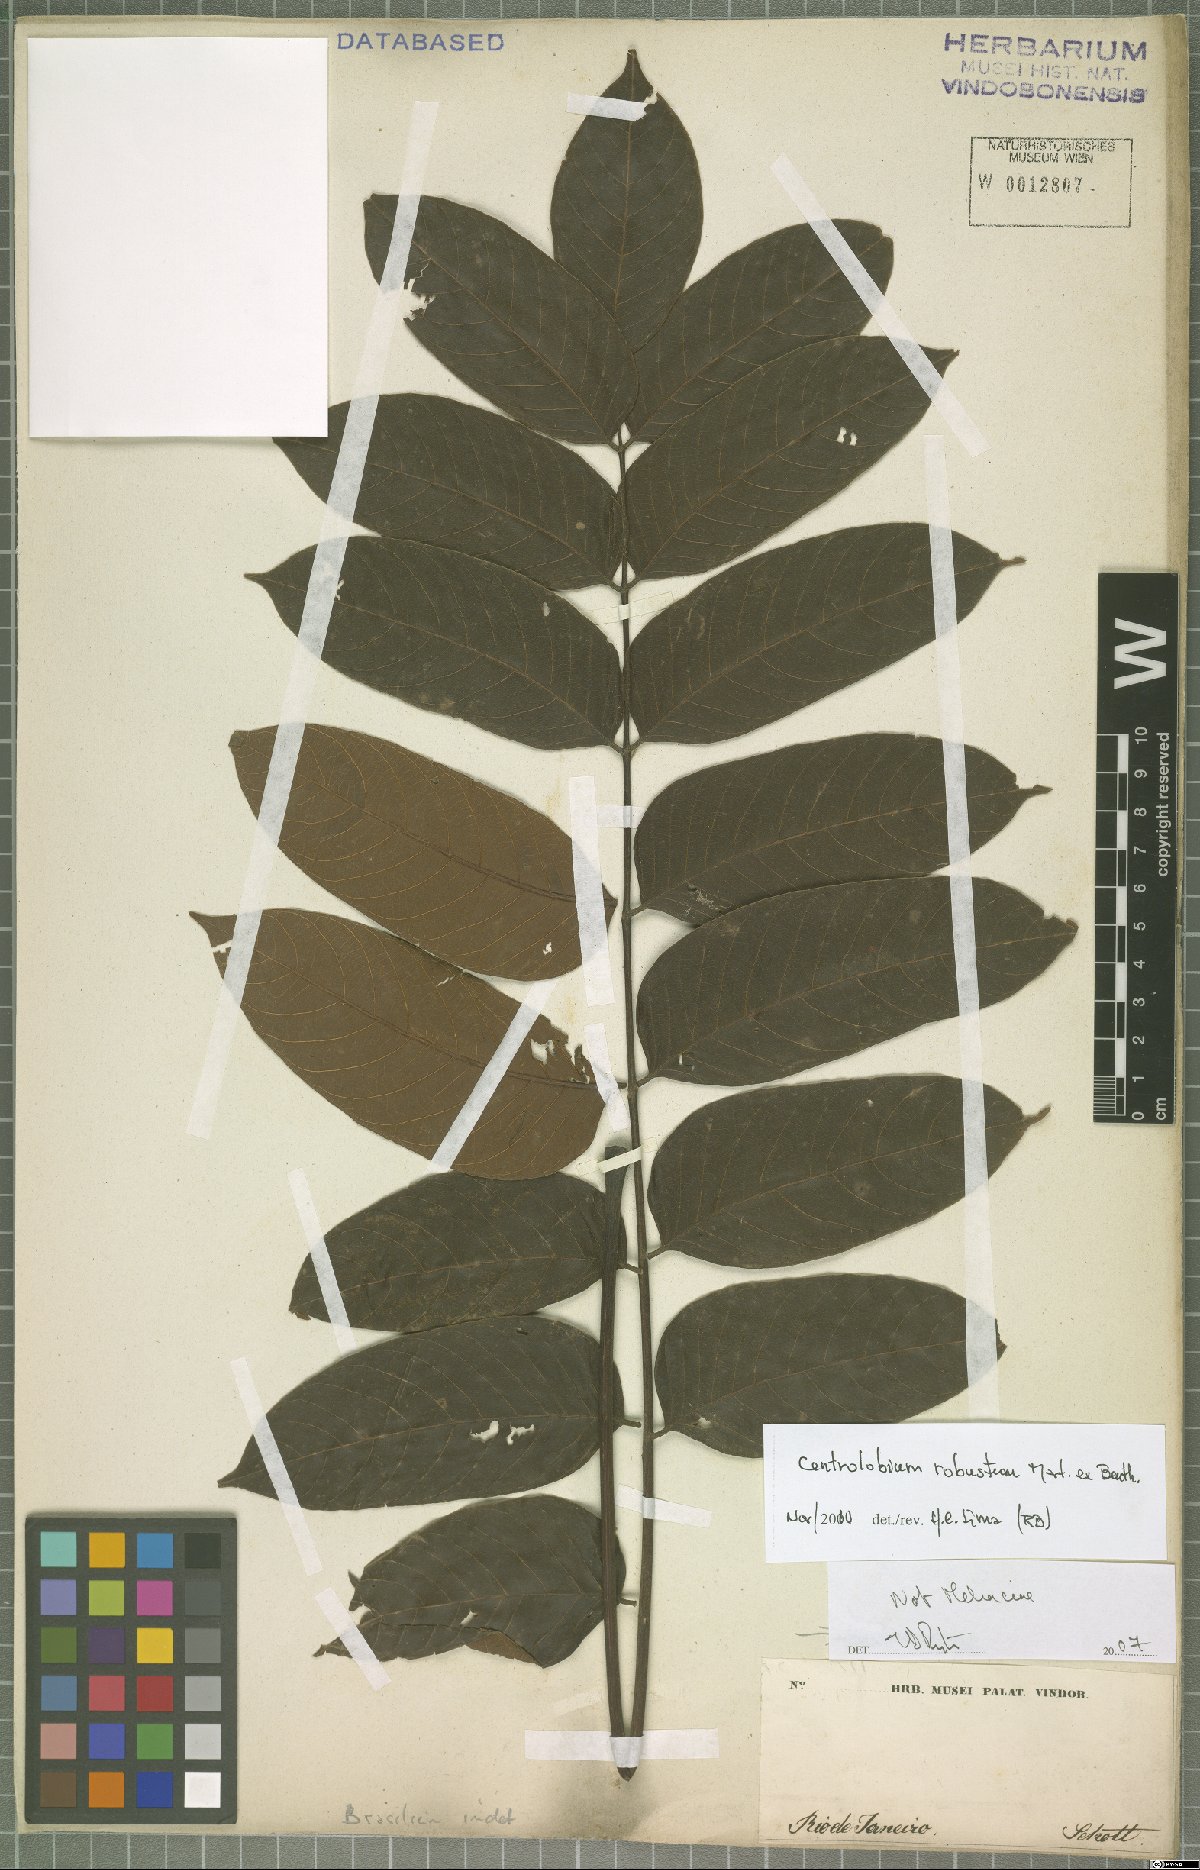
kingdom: Plantae
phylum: Tracheophyta
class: Magnoliopsida
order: Fabales
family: Fabaceae
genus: Centrolobium
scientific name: Centrolobium robustum
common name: Zebrawood
